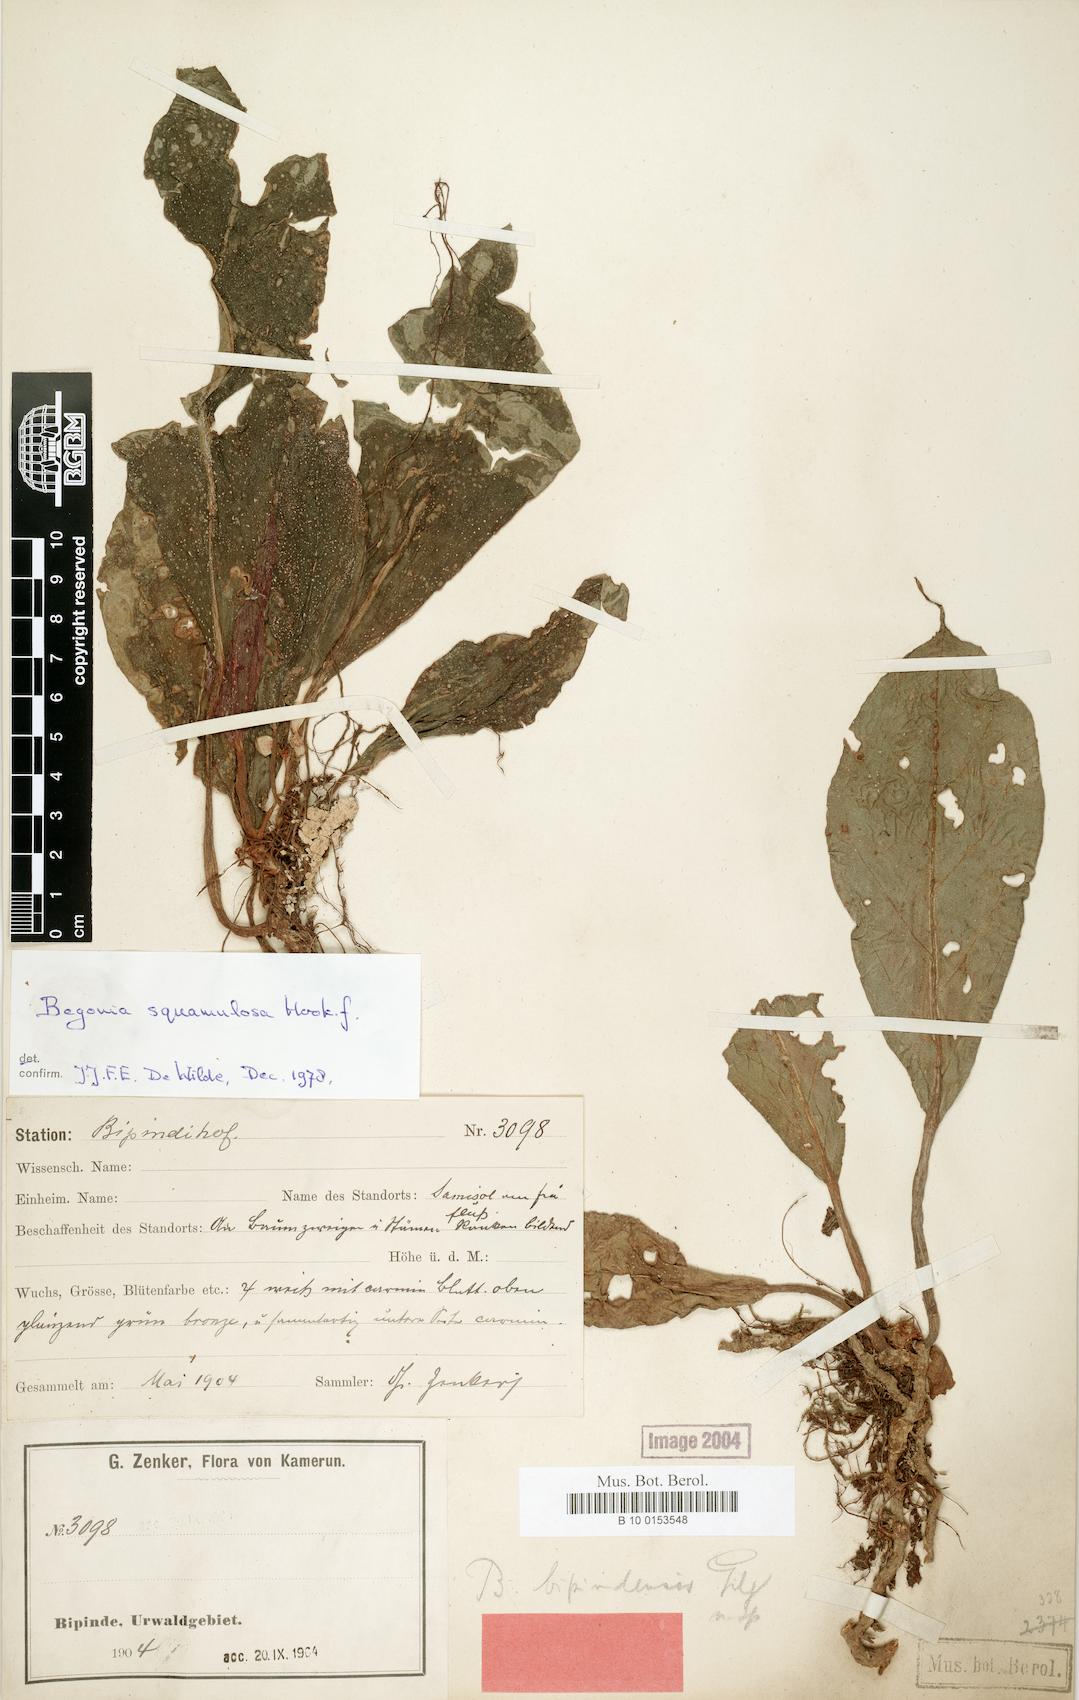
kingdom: Plantae
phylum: Tracheophyta
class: Magnoliopsida
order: Cucurbitales
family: Begoniaceae
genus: Begonia
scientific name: Begonia longipetiolata
